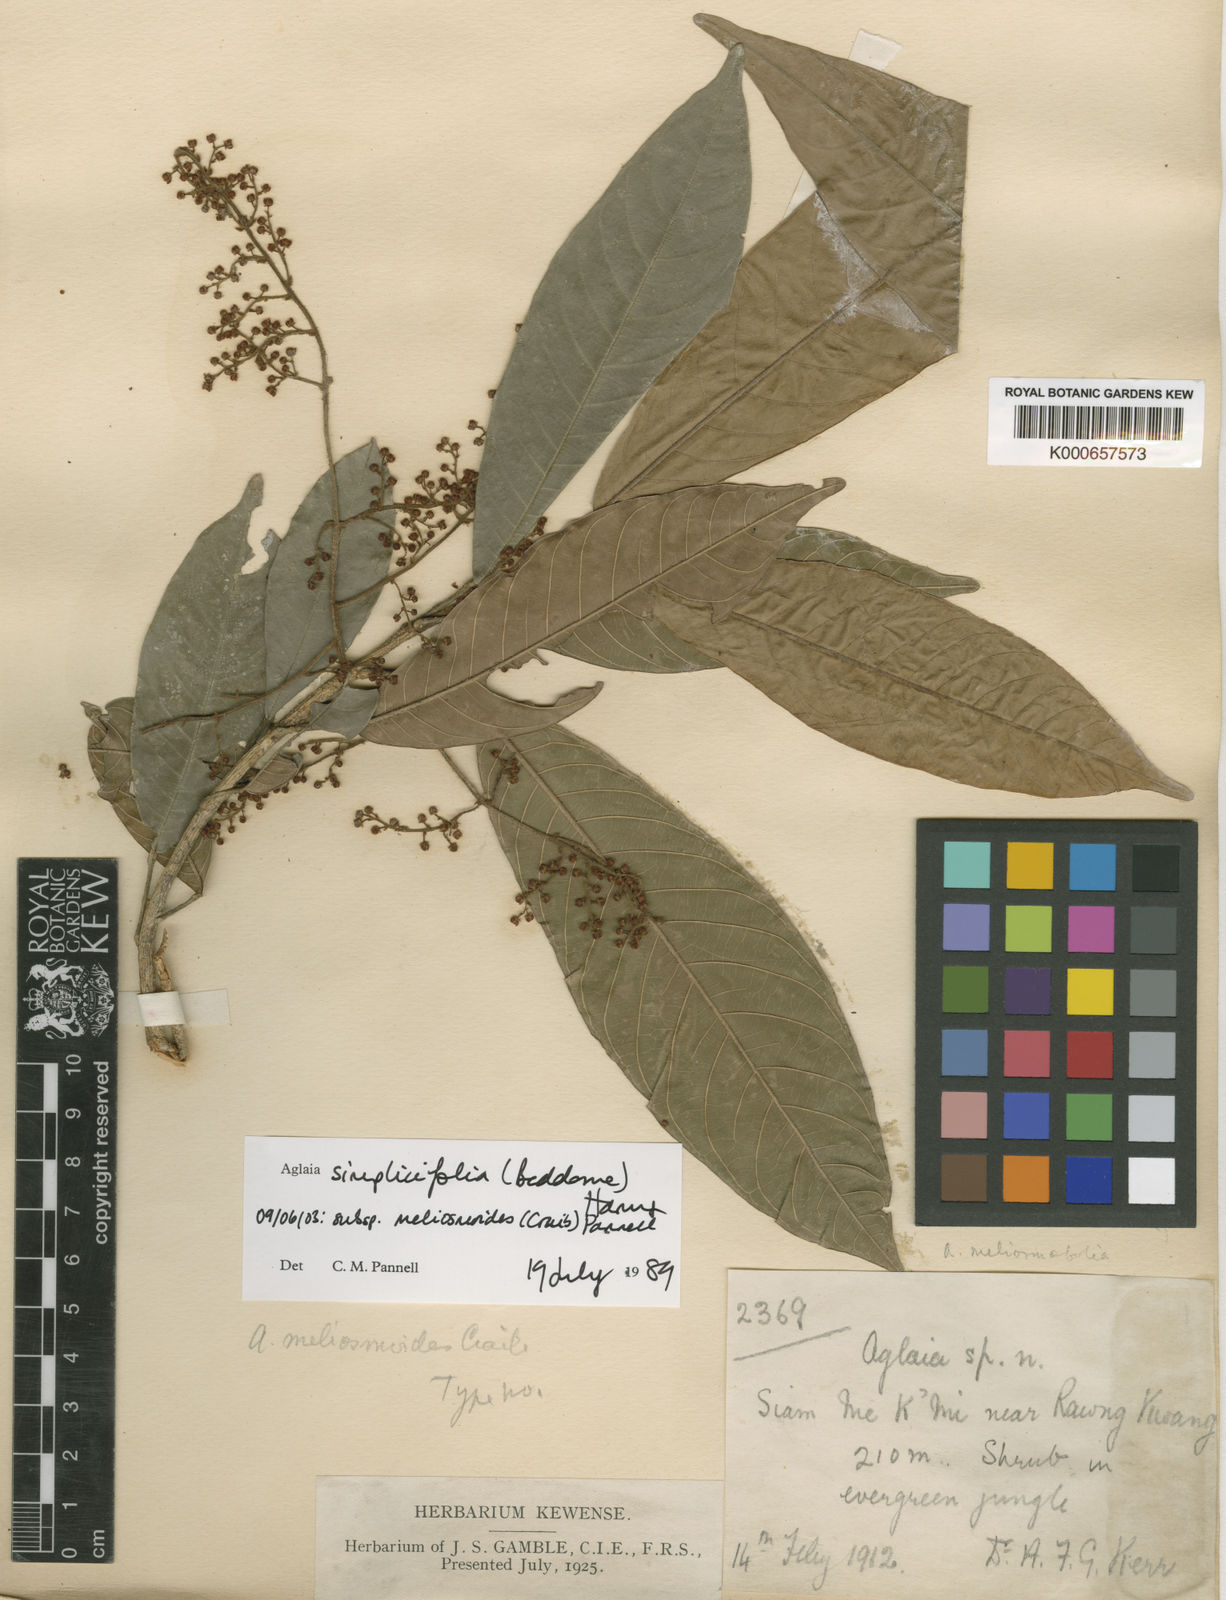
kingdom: Plantae
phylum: Tracheophyta
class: Magnoliopsida
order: Sapindales
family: Meliaceae
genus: Aglaia
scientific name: Aglaia simplicifolia
